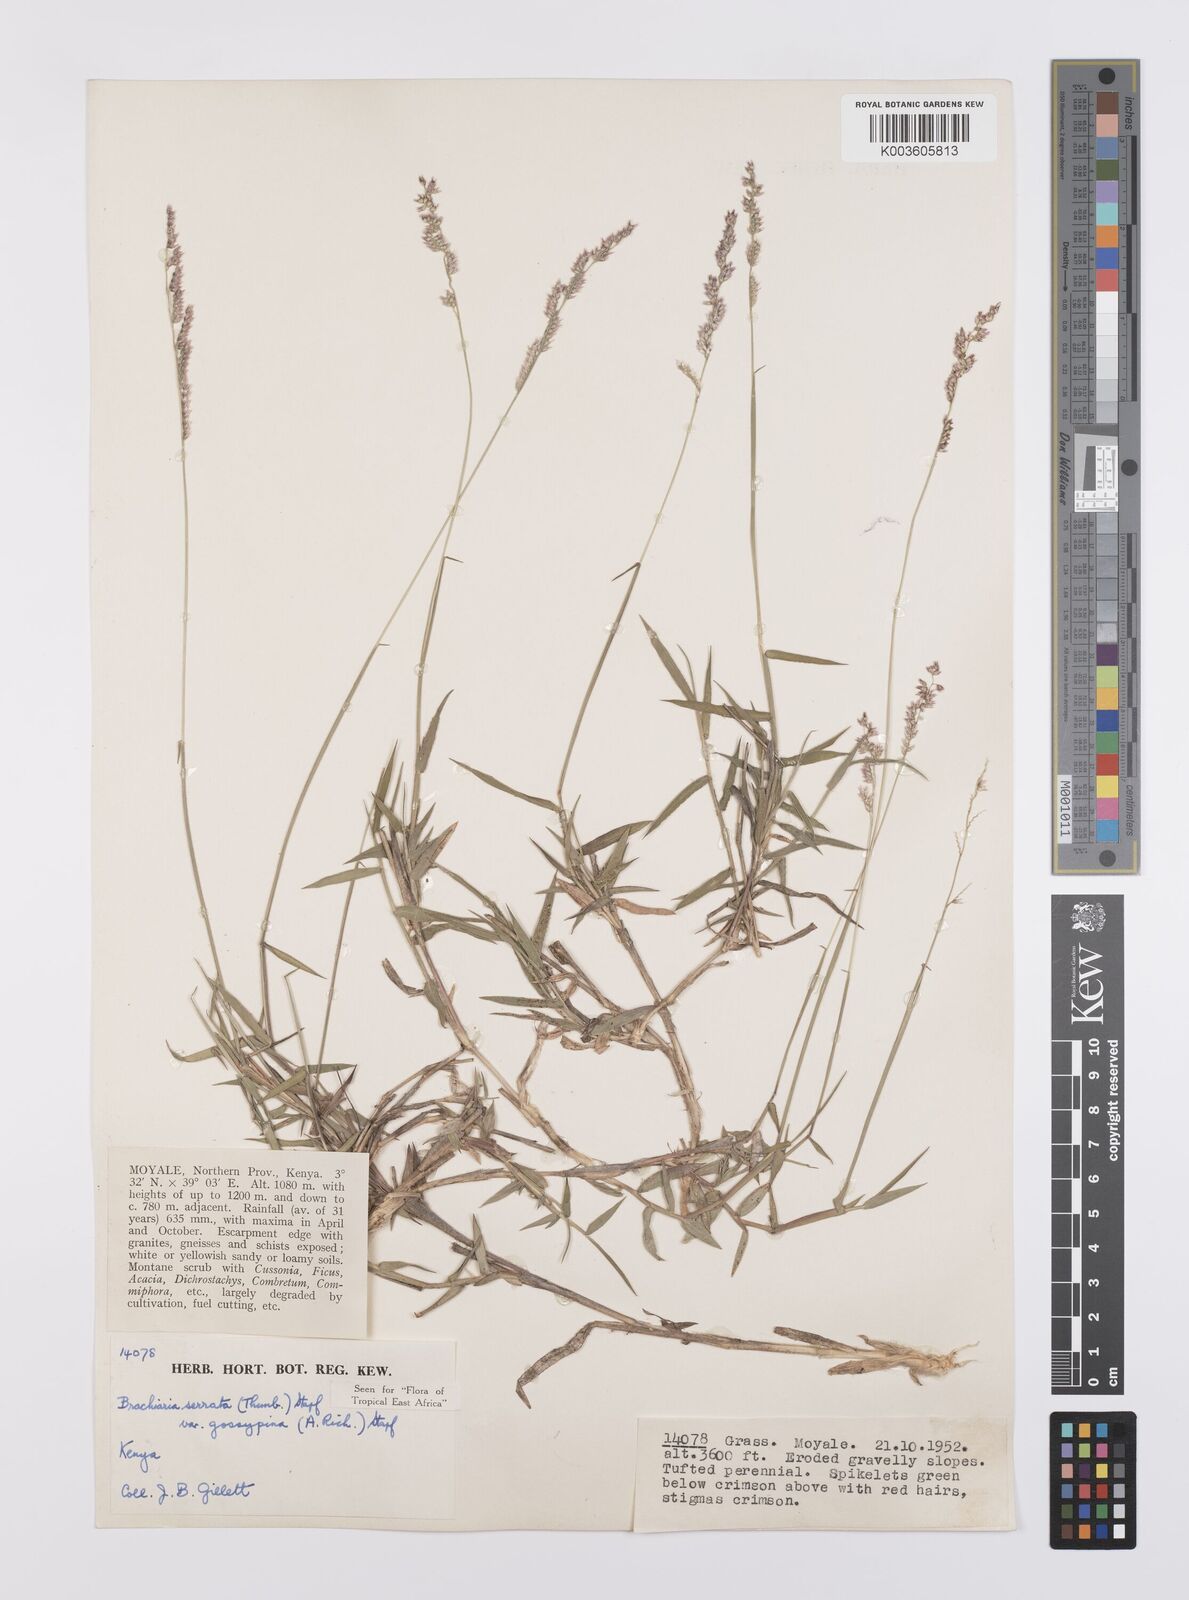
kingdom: Plantae
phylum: Tracheophyta
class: Liliopsida
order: Poales
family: Poaceae
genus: Urochloa
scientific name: Urochloa serrata
